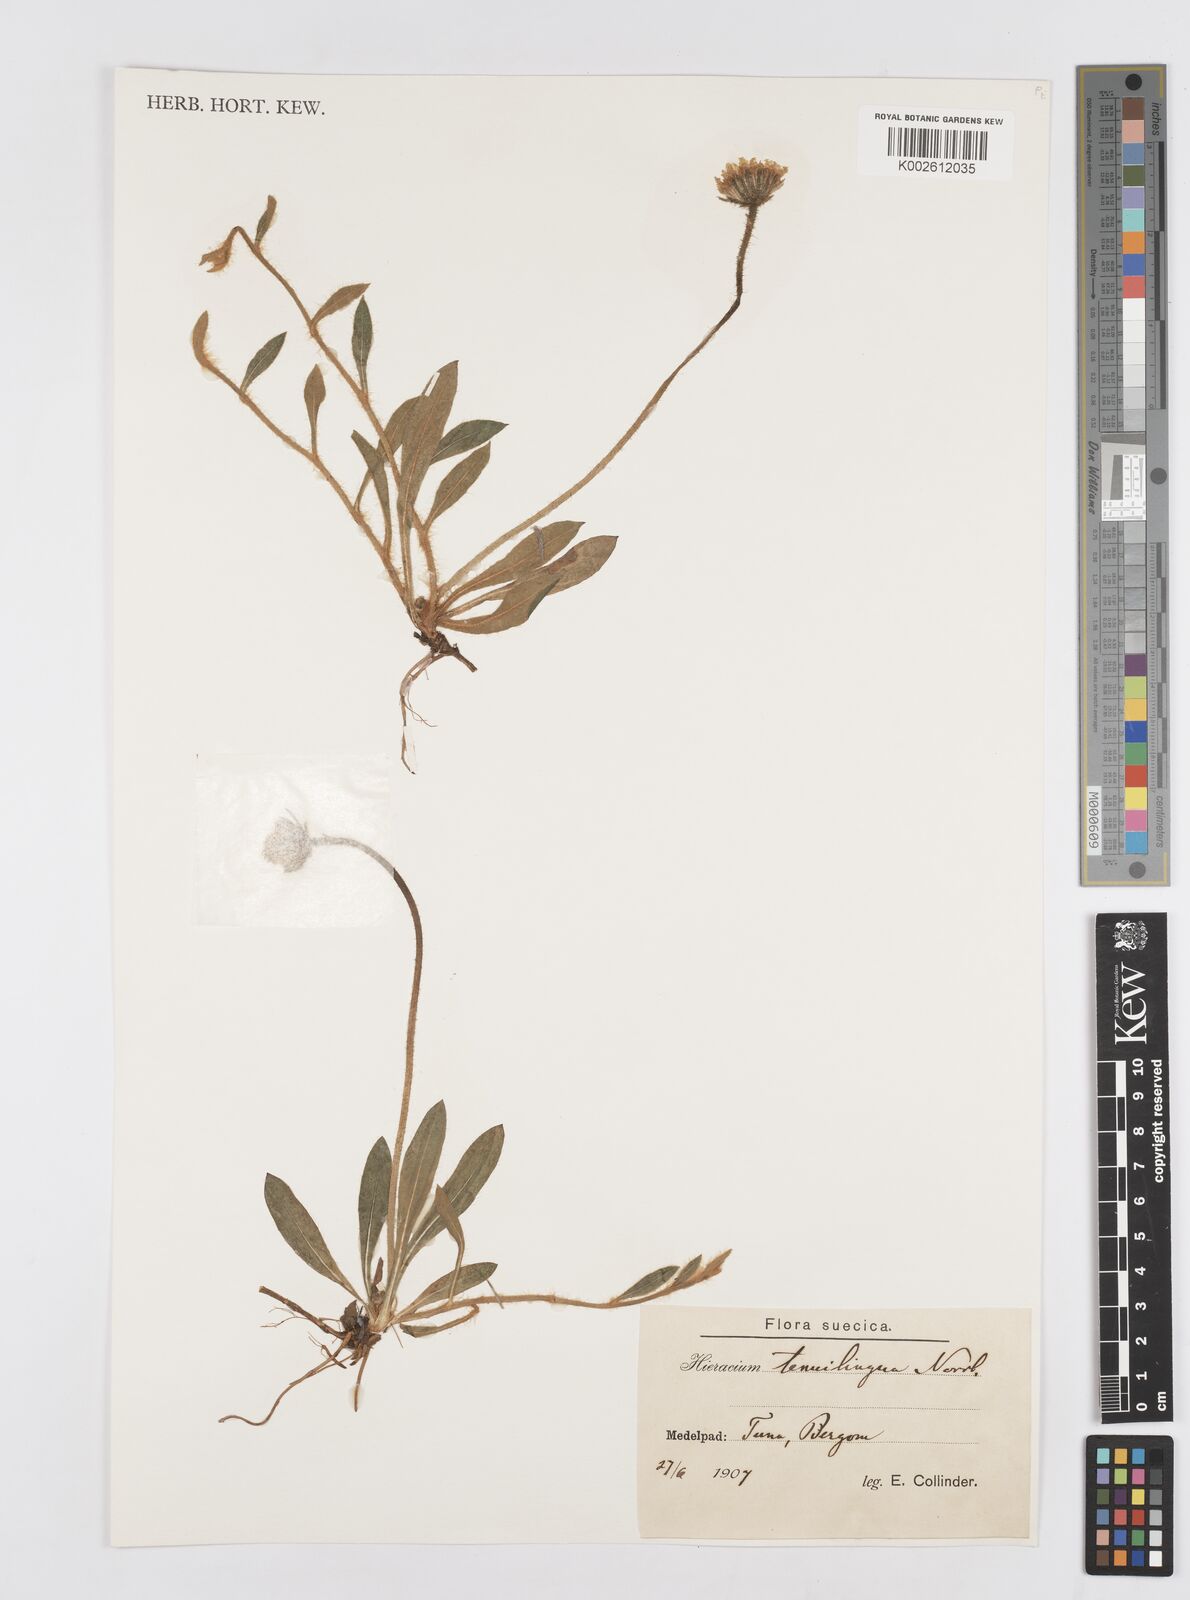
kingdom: Plantae
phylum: Tracheophyta
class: Magnoliopsida
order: Asterales
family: Asteraceae
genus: Pilosella
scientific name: Pilosella officinarum
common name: Mouse-ear hawkweed
